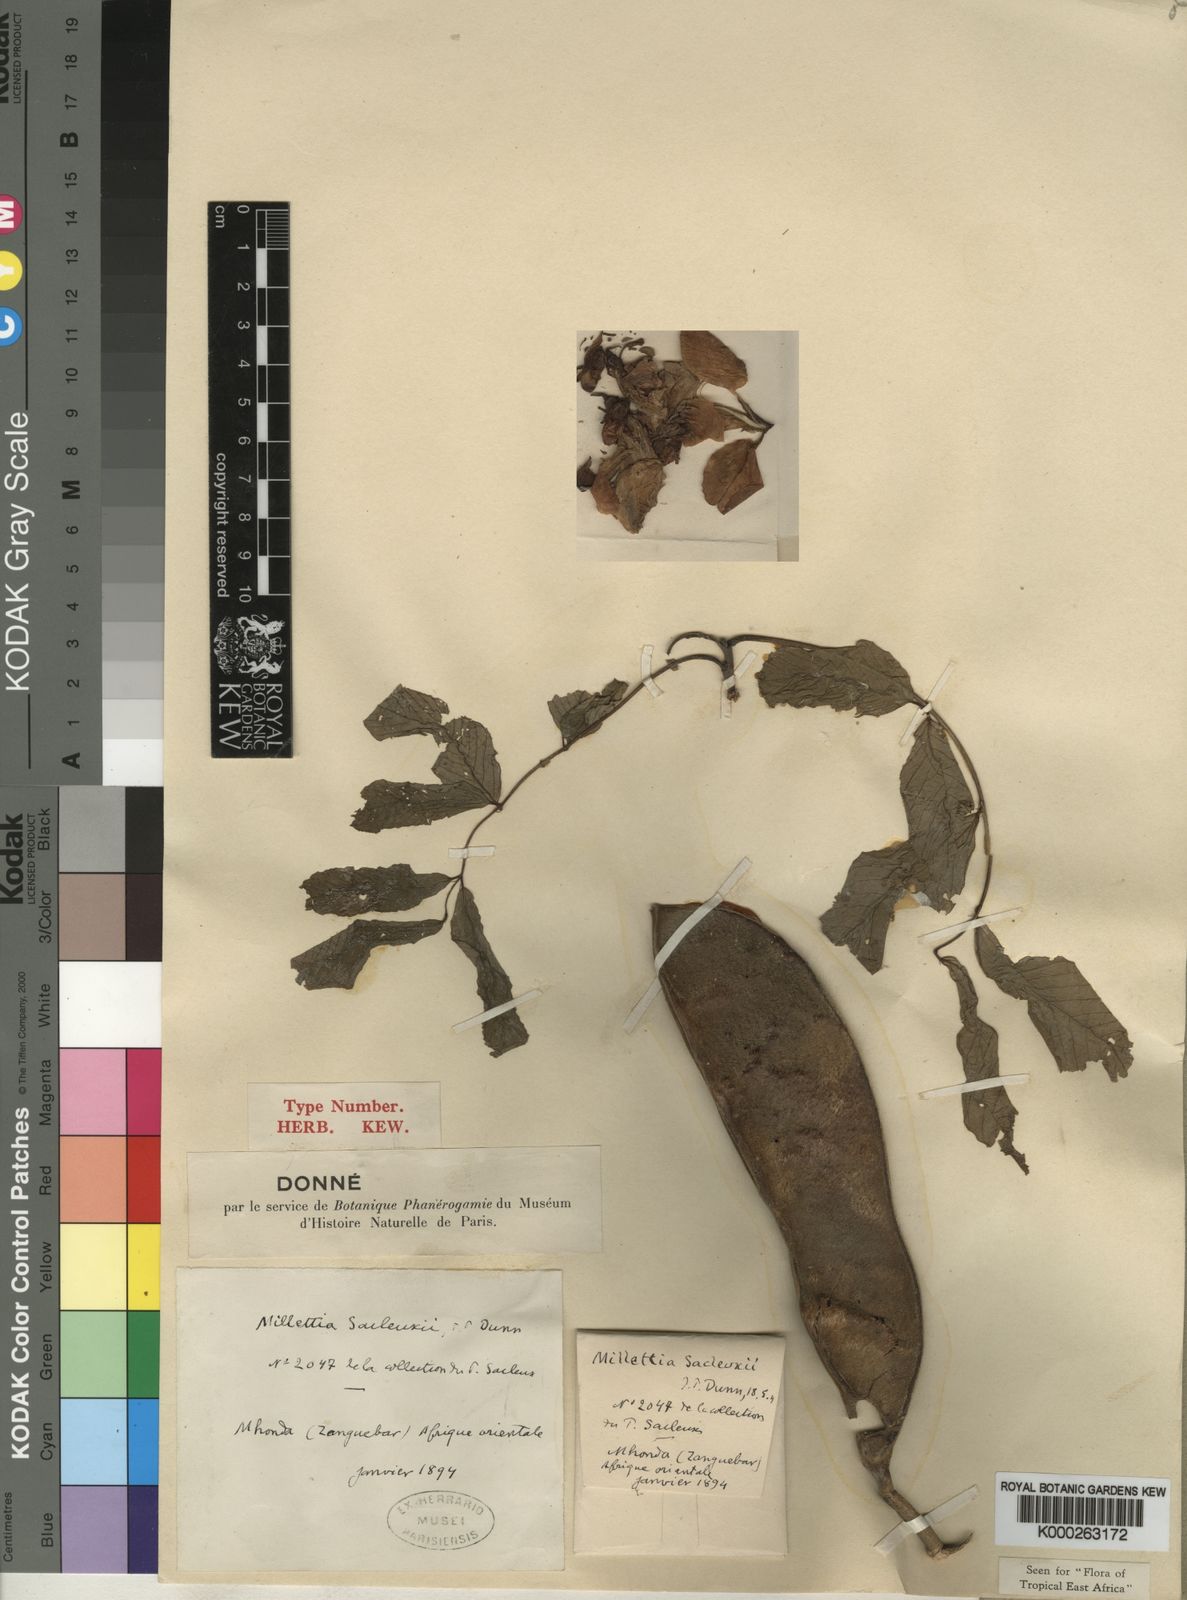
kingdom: Plantae
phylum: Tracheophyta
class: Magnoliopsida
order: Fabales
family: Fabaceae
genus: Millettia
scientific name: Millettia sacleuxii
